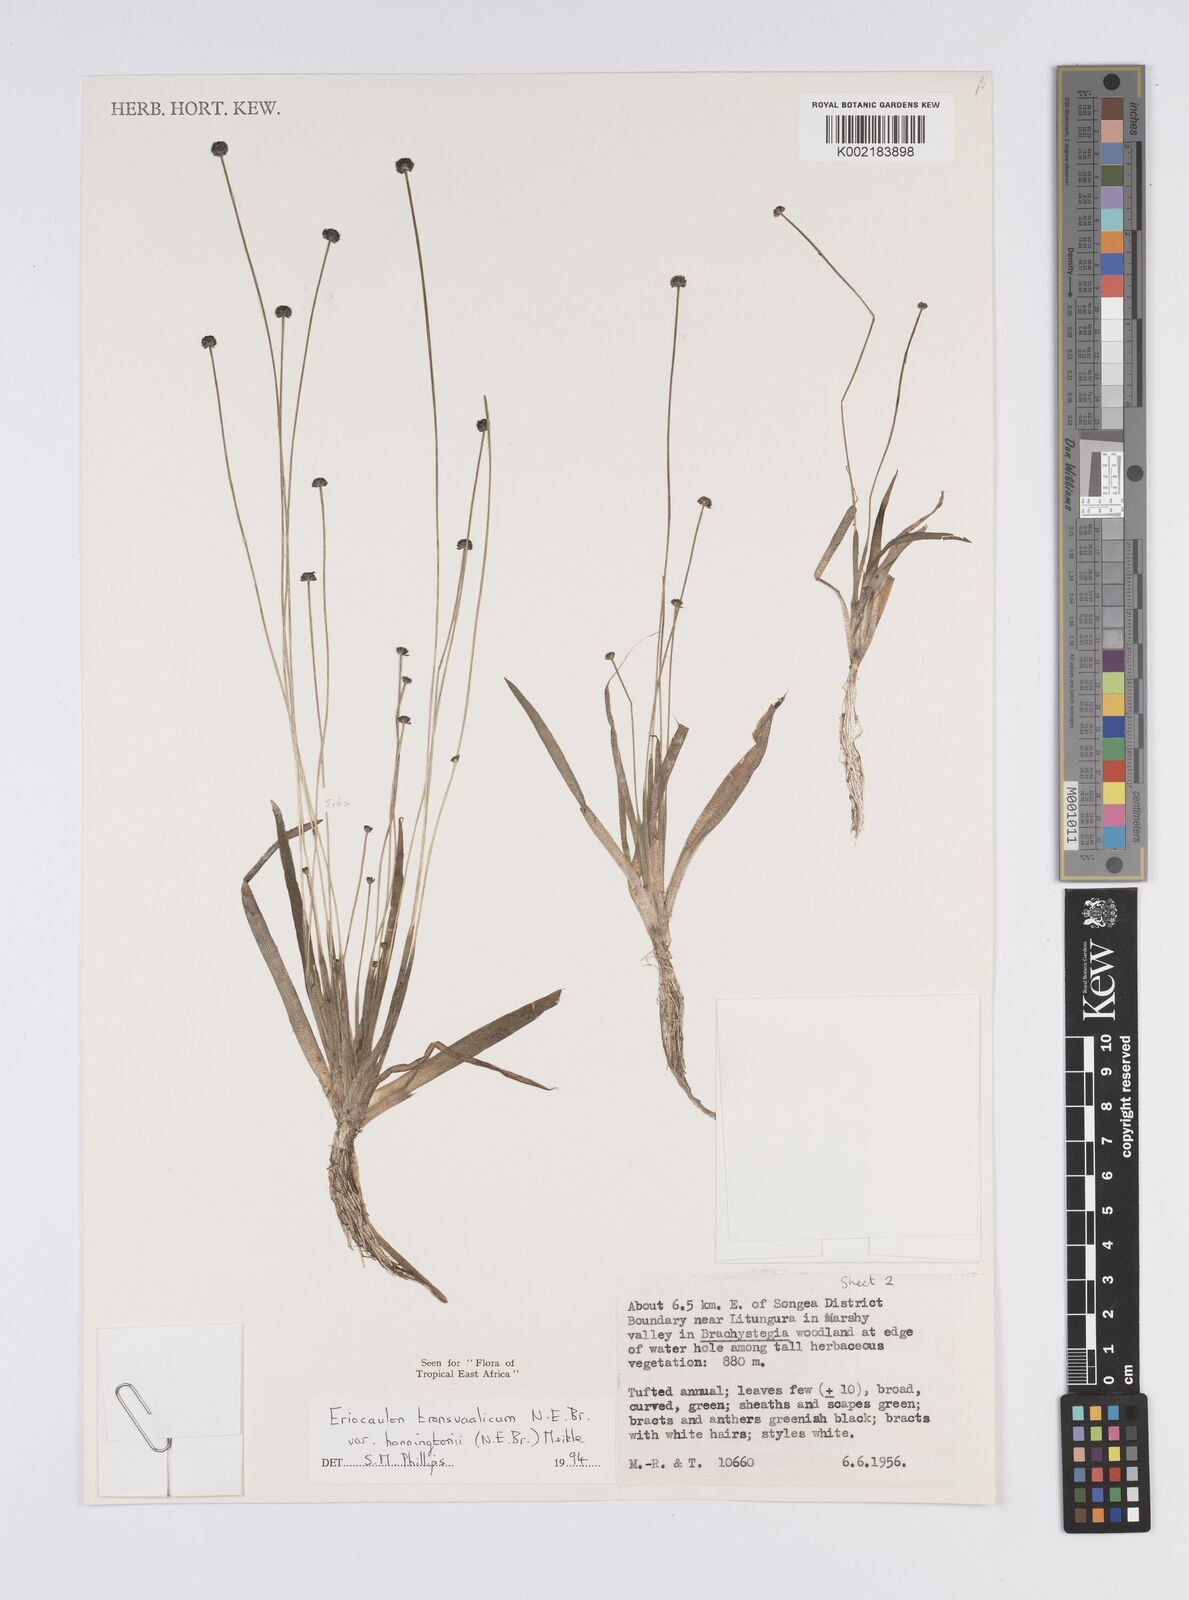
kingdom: Plantae
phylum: Tracheophyta
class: Liliopsida
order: Poales
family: Eriocaulaceae
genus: Eriocaulon
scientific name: Eriocaulon transvaalicum
